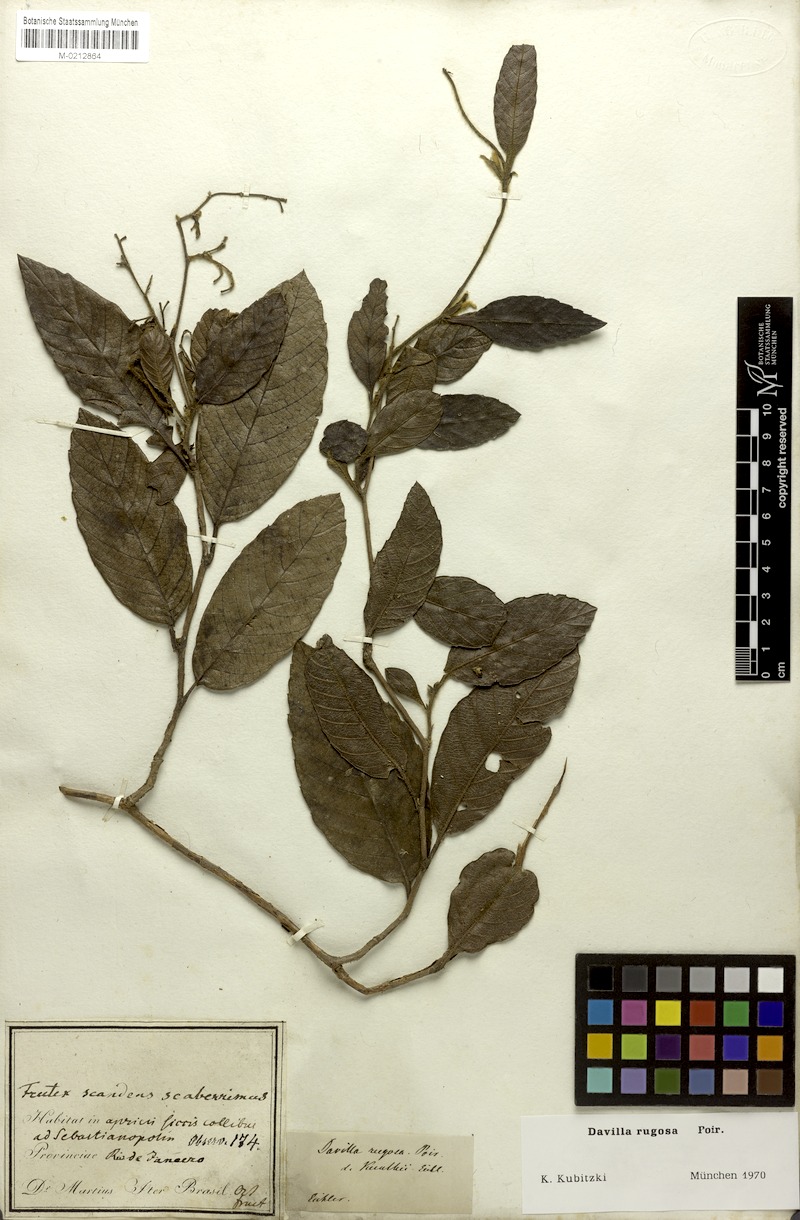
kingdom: Plantae
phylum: Tracheophyta
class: Magnoliopsida
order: Dilleniales
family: Dilleniaceae
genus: Davilla
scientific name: Davilla rugosa
